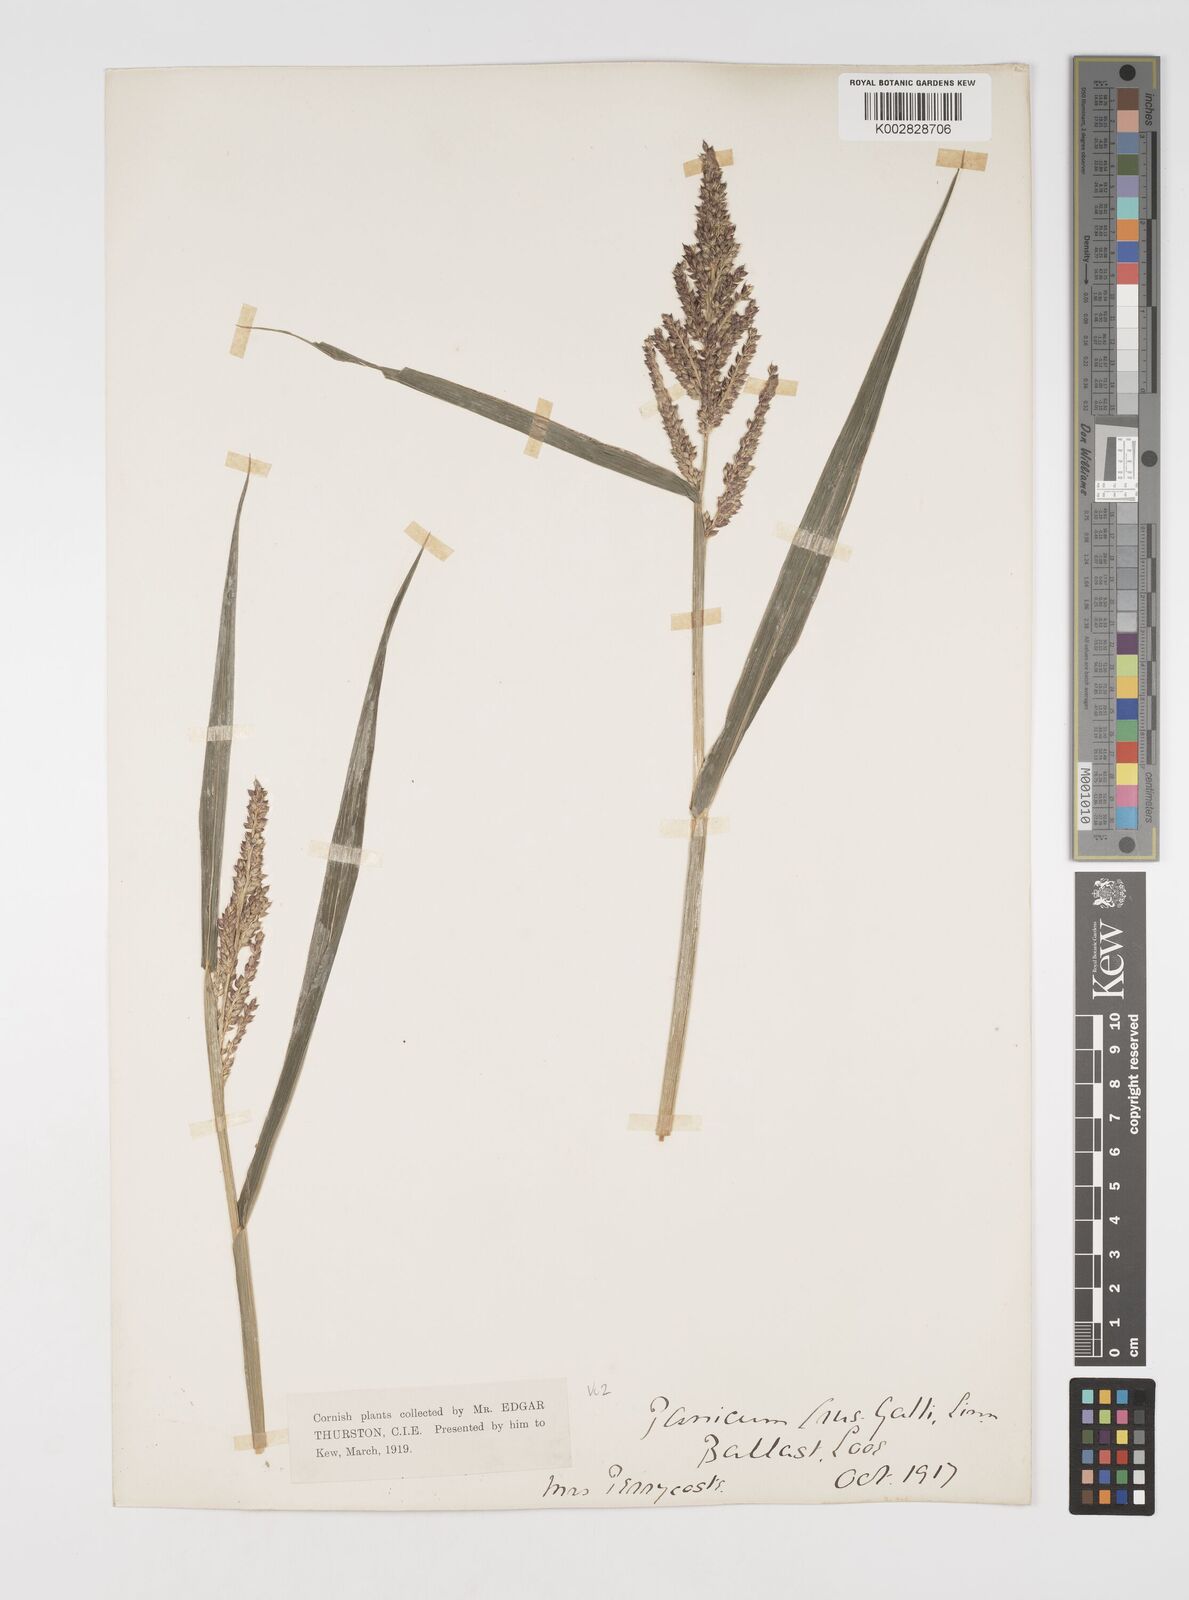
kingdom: Plantae
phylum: Tracheophyta
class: Liliopsida
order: Poales
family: Poaceae
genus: Echinochloa
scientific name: Echinochloa crus-galli
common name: Cockspur
